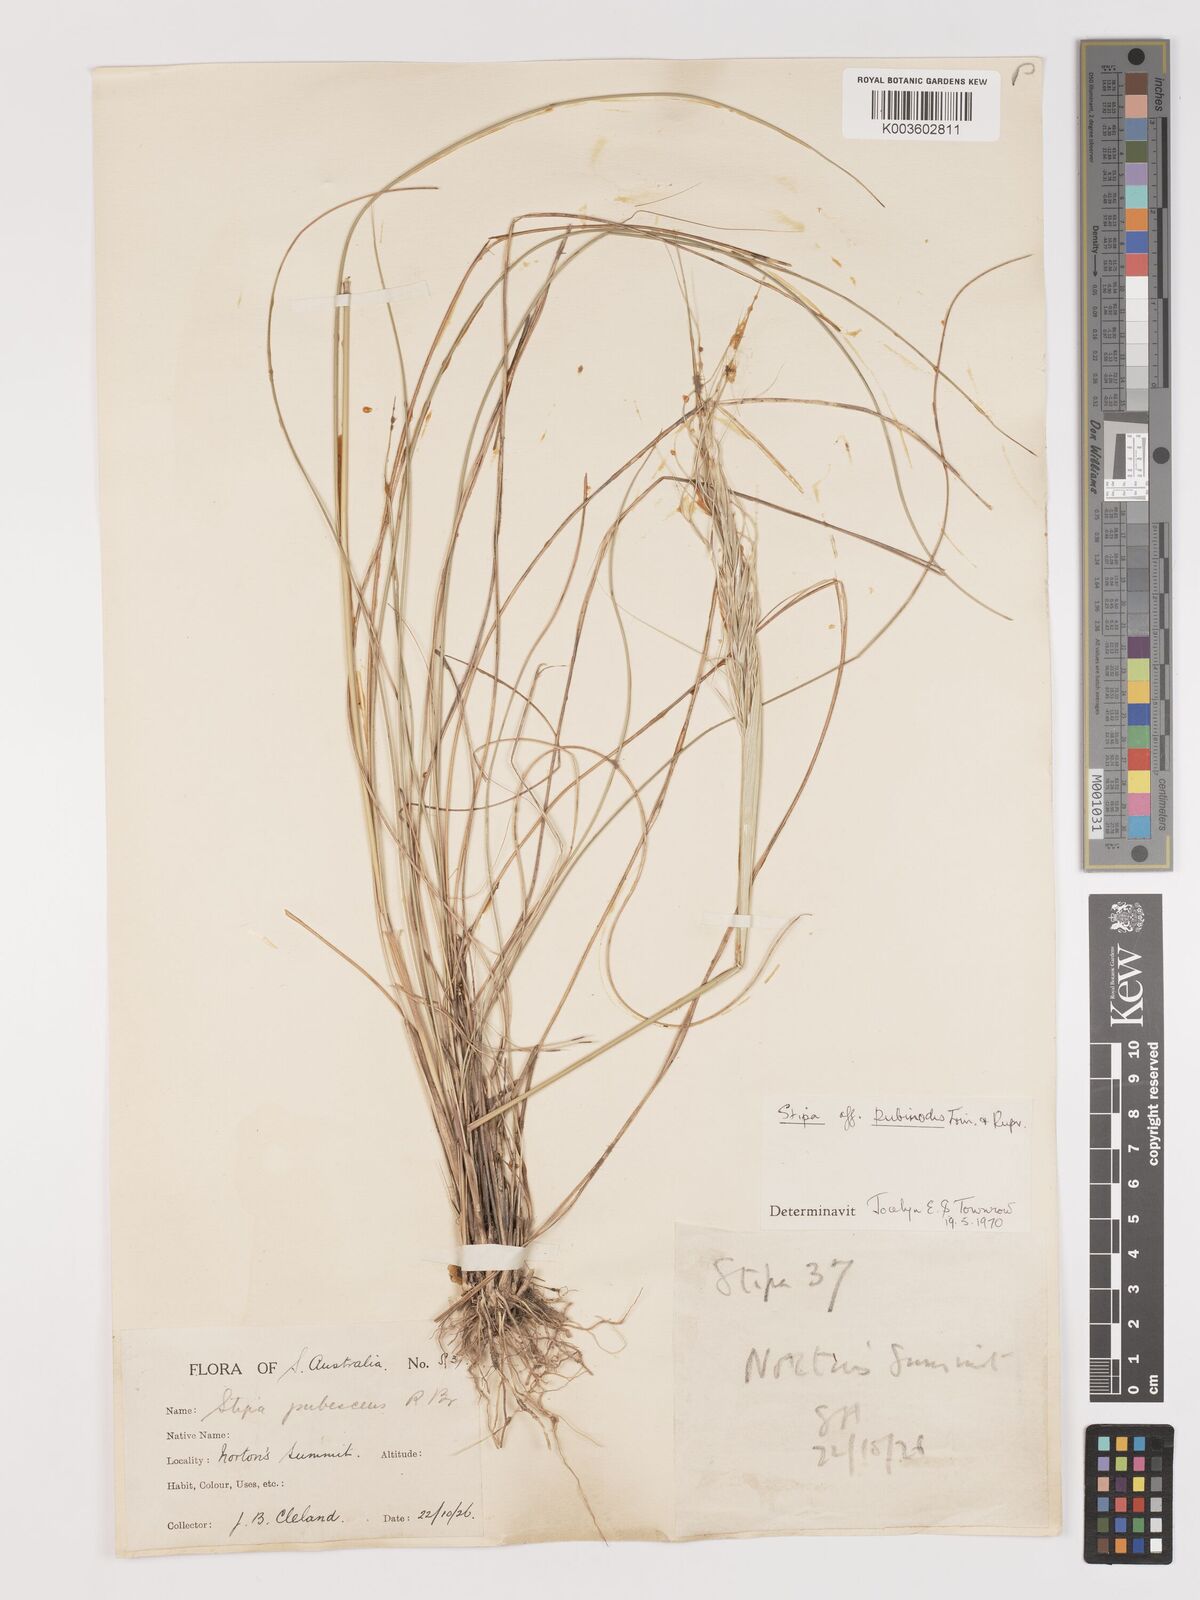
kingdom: Plantae
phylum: Tracheophyta
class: Liliopsida
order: Poales
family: Poaceae
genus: Austrostipa
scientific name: Austrostipa pubescens
